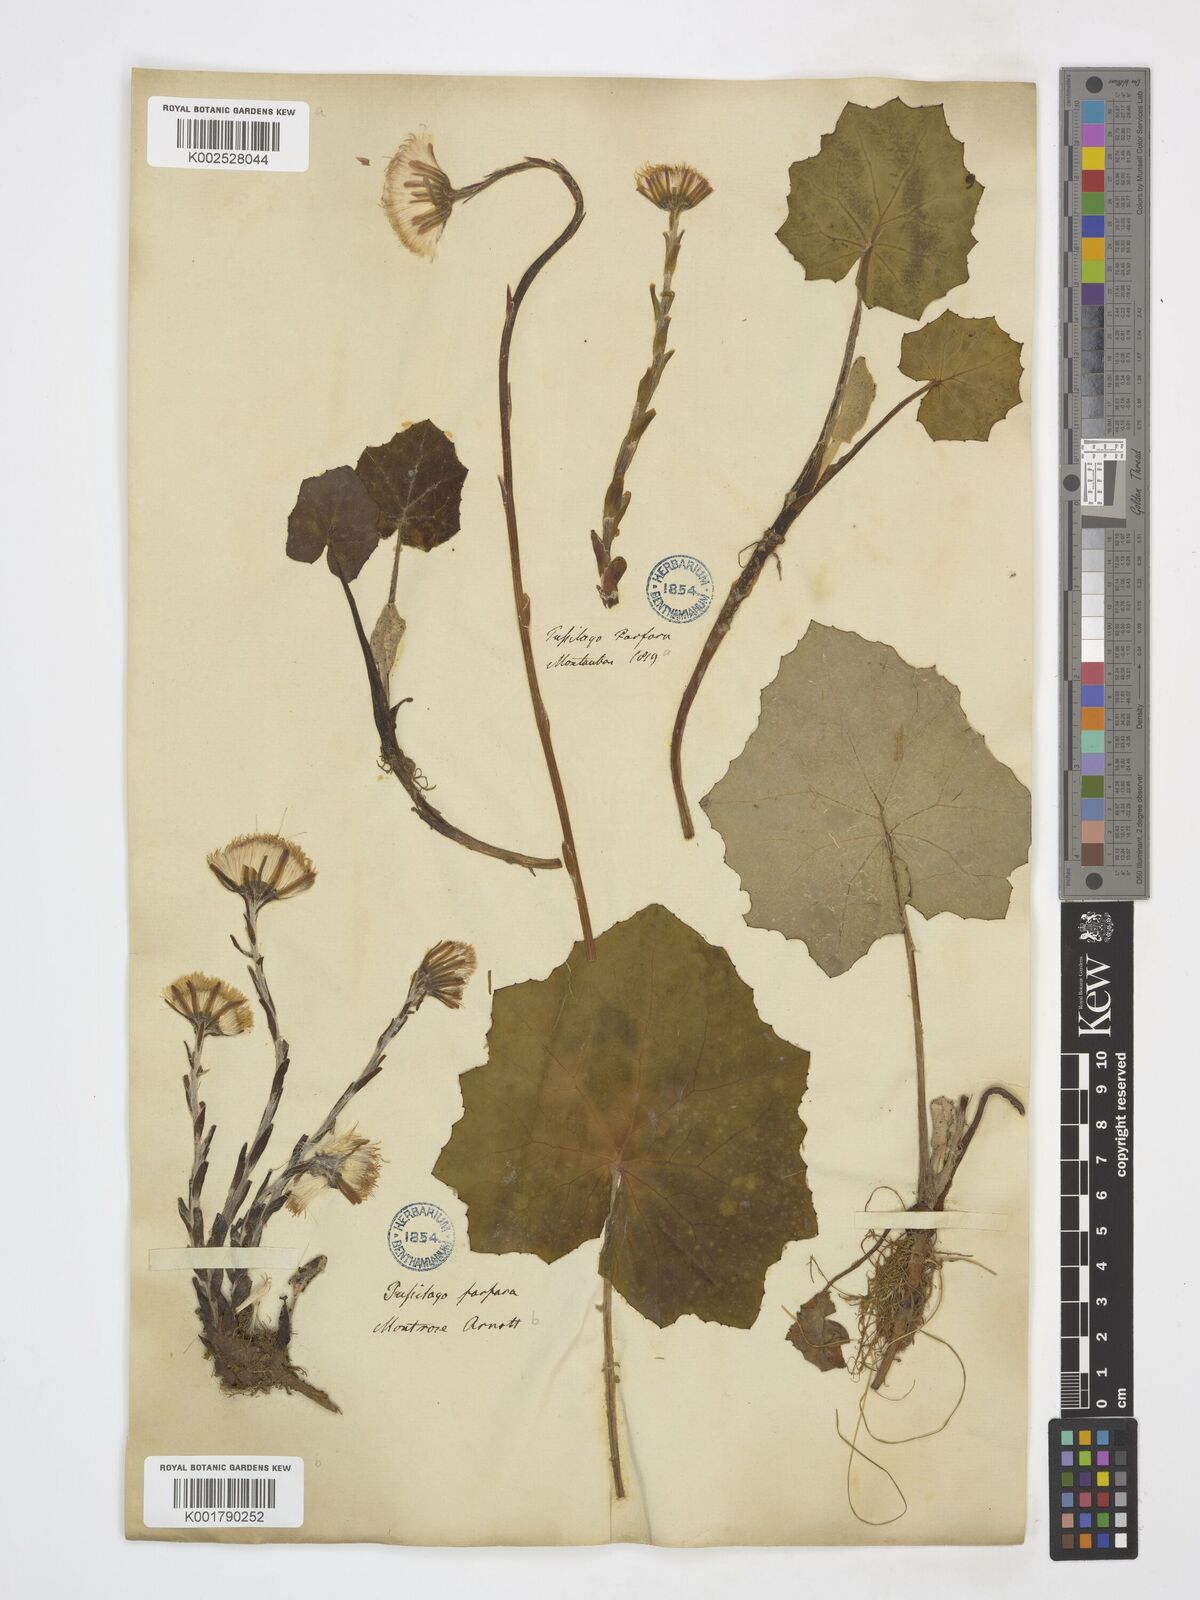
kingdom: Plantae
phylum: Tracheophyta
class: Magnoliopsida
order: Asterales
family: Asteraceae
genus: Tussilago
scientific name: Tussilago farfara
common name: Coltsfoot
